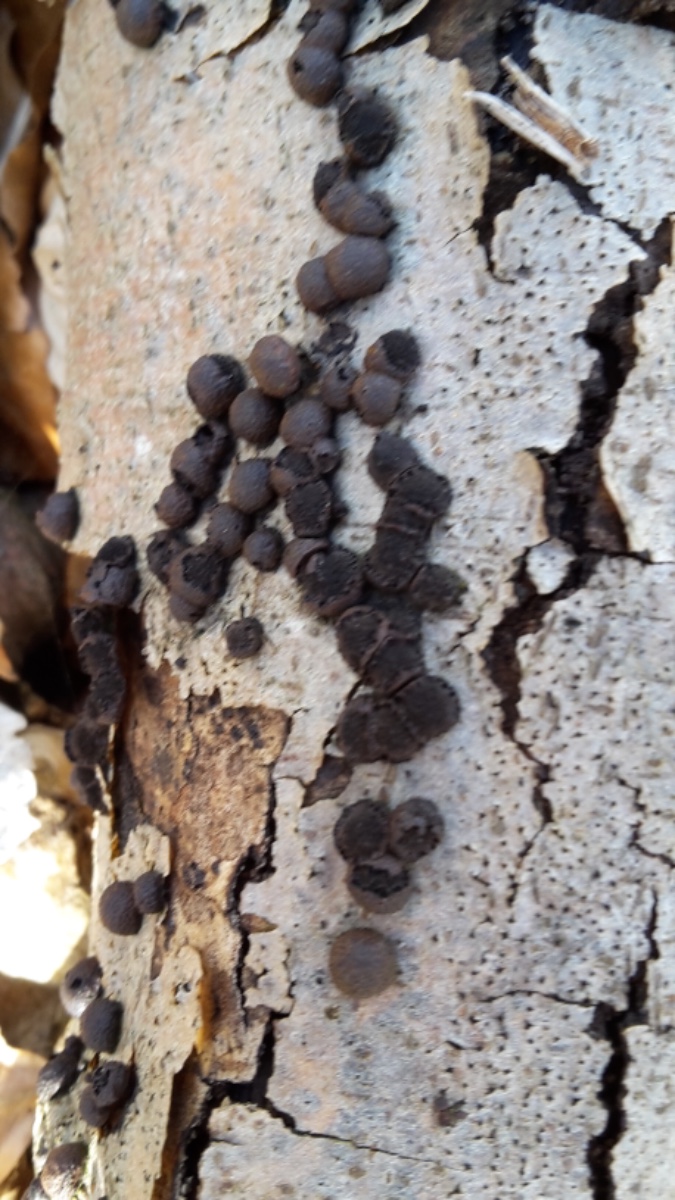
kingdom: Fungi
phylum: Ascomycota
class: Sordariomycetes
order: Xylariales
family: Hypoxylaceae
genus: Hypoxylon
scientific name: Hypoxylon fragiforme
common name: kuljordbær
